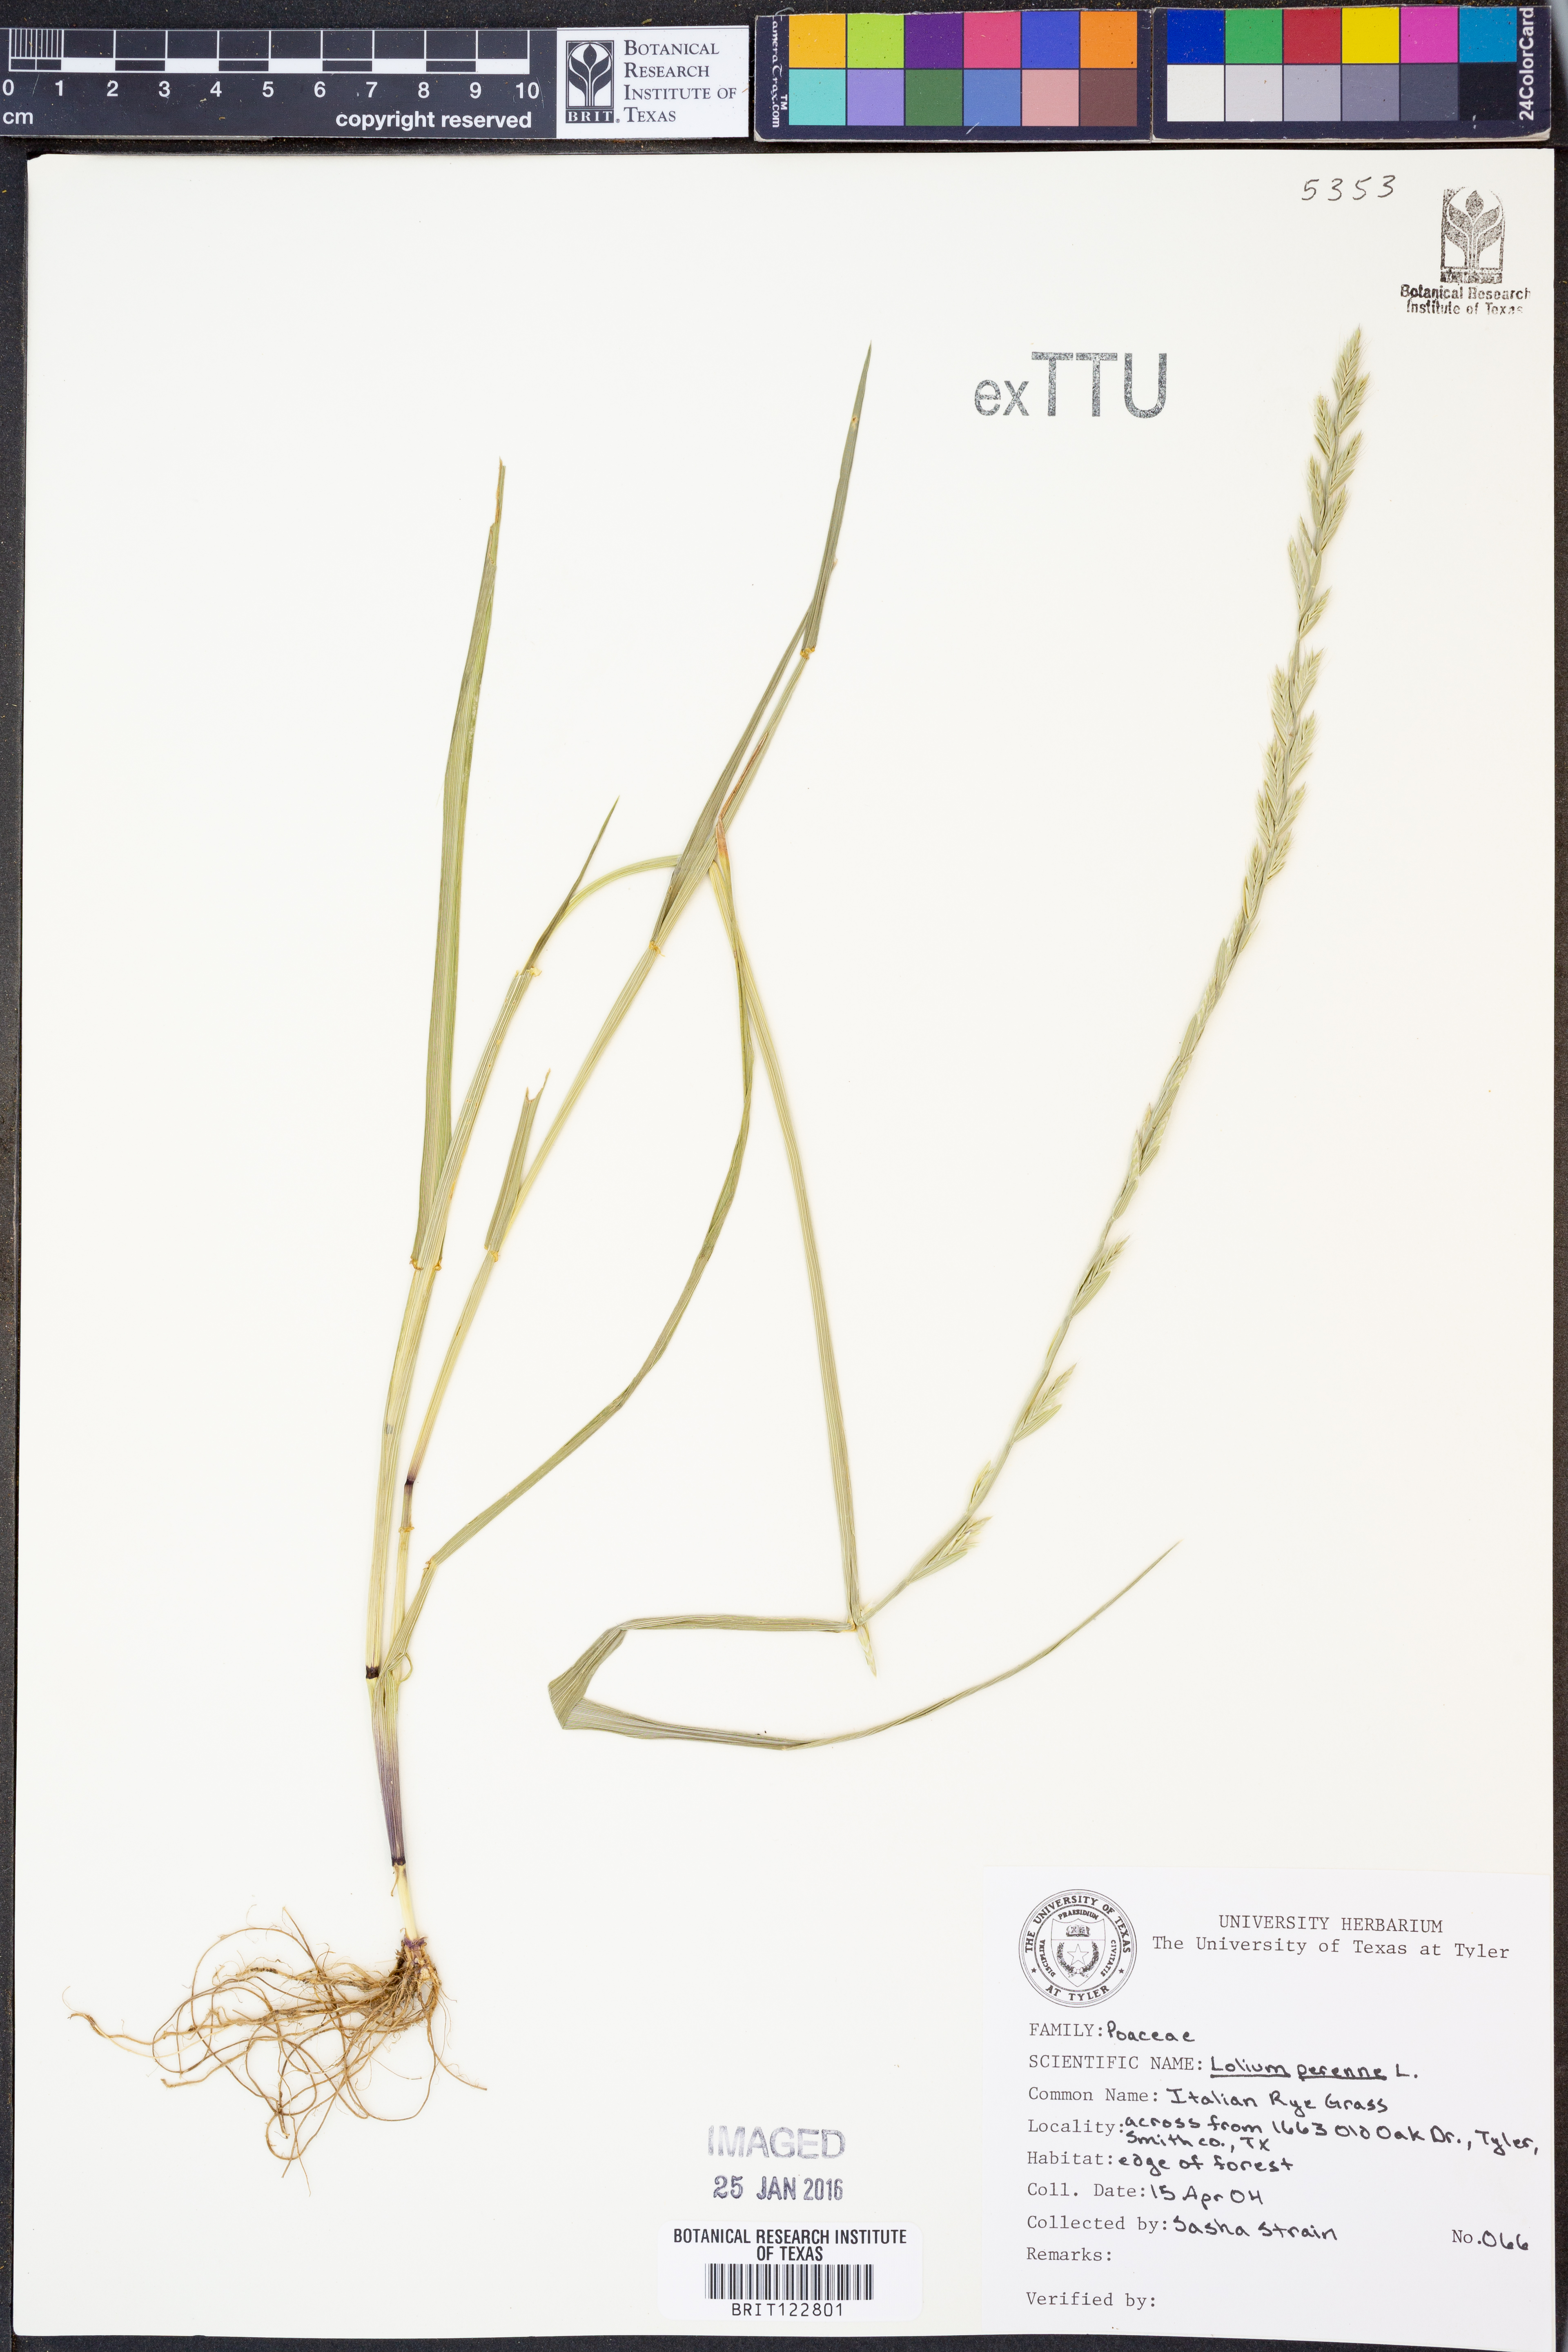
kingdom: Plantae
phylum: Tracheophyta
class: Liliopsida
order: Poales
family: Poaceae
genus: Lolium
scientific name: Lolium perenne
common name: Perennial ryegrass
